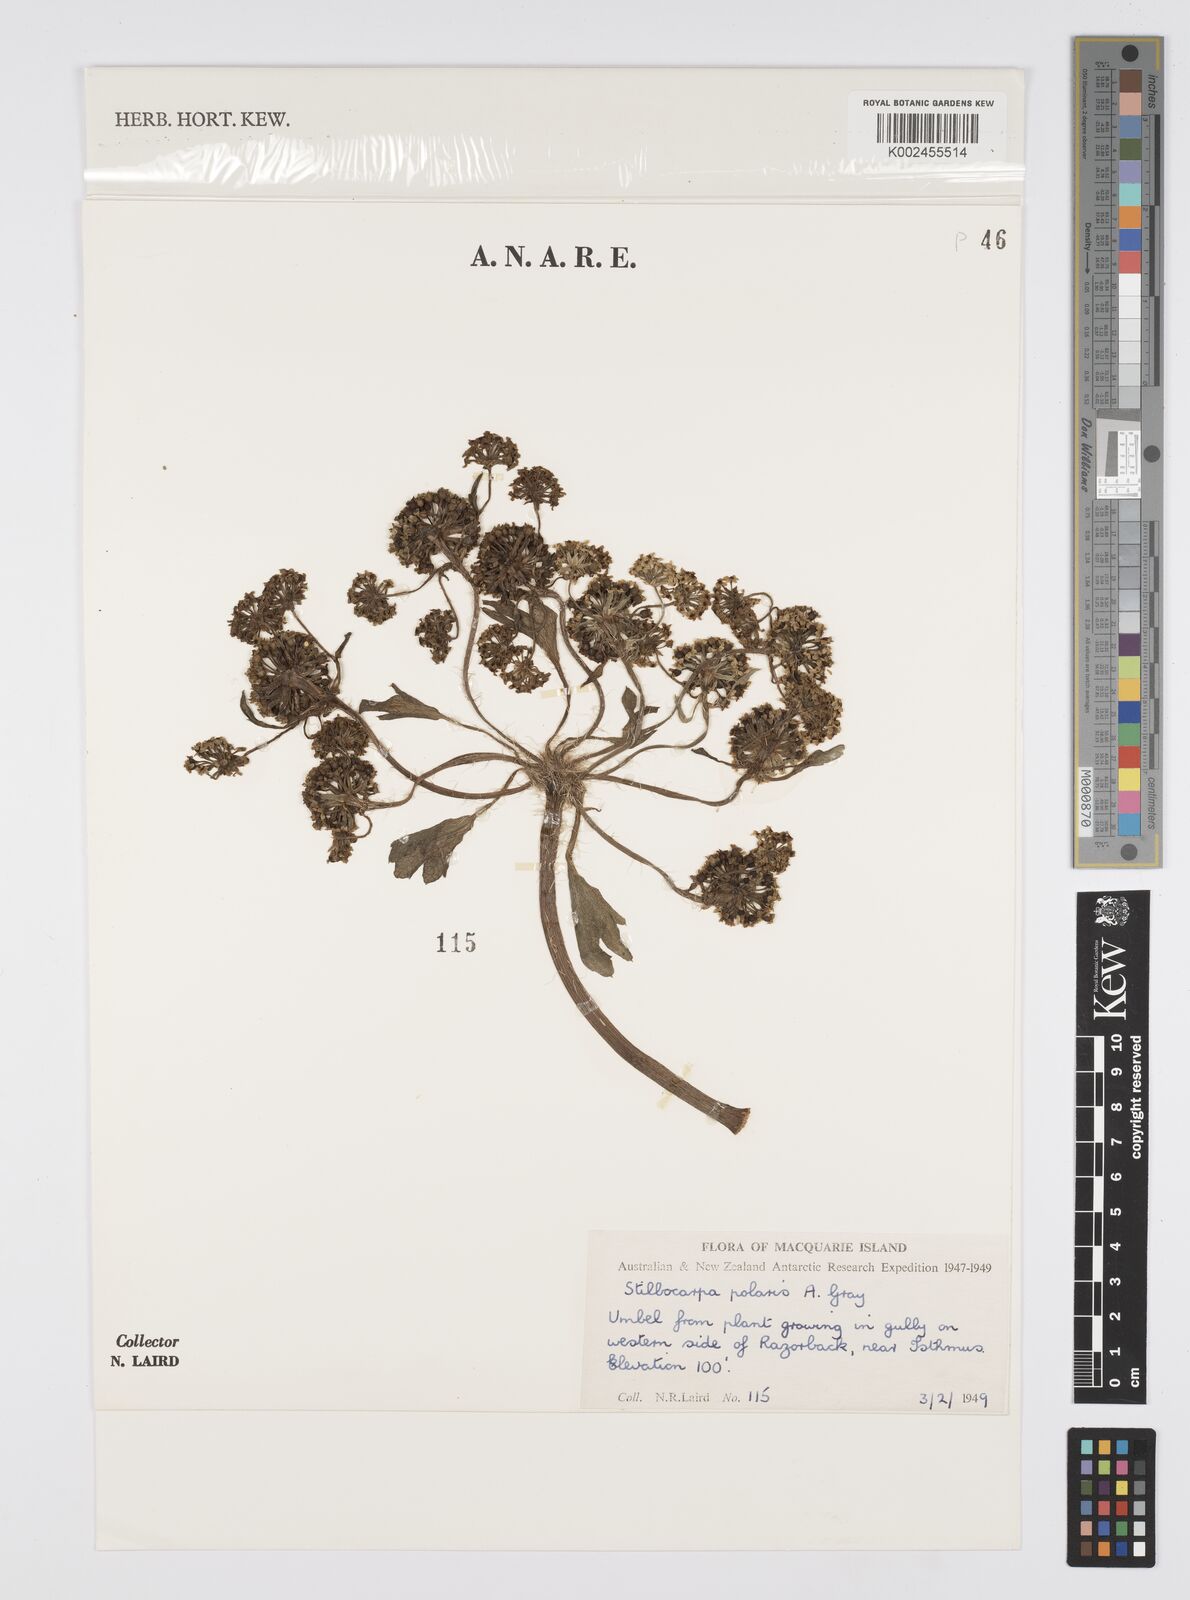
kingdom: Plantae
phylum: Tracheophyta
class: Magnoliopsida
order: Apiales
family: Araliaceae
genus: Stilbocarpa
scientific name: Stilbocarpa
